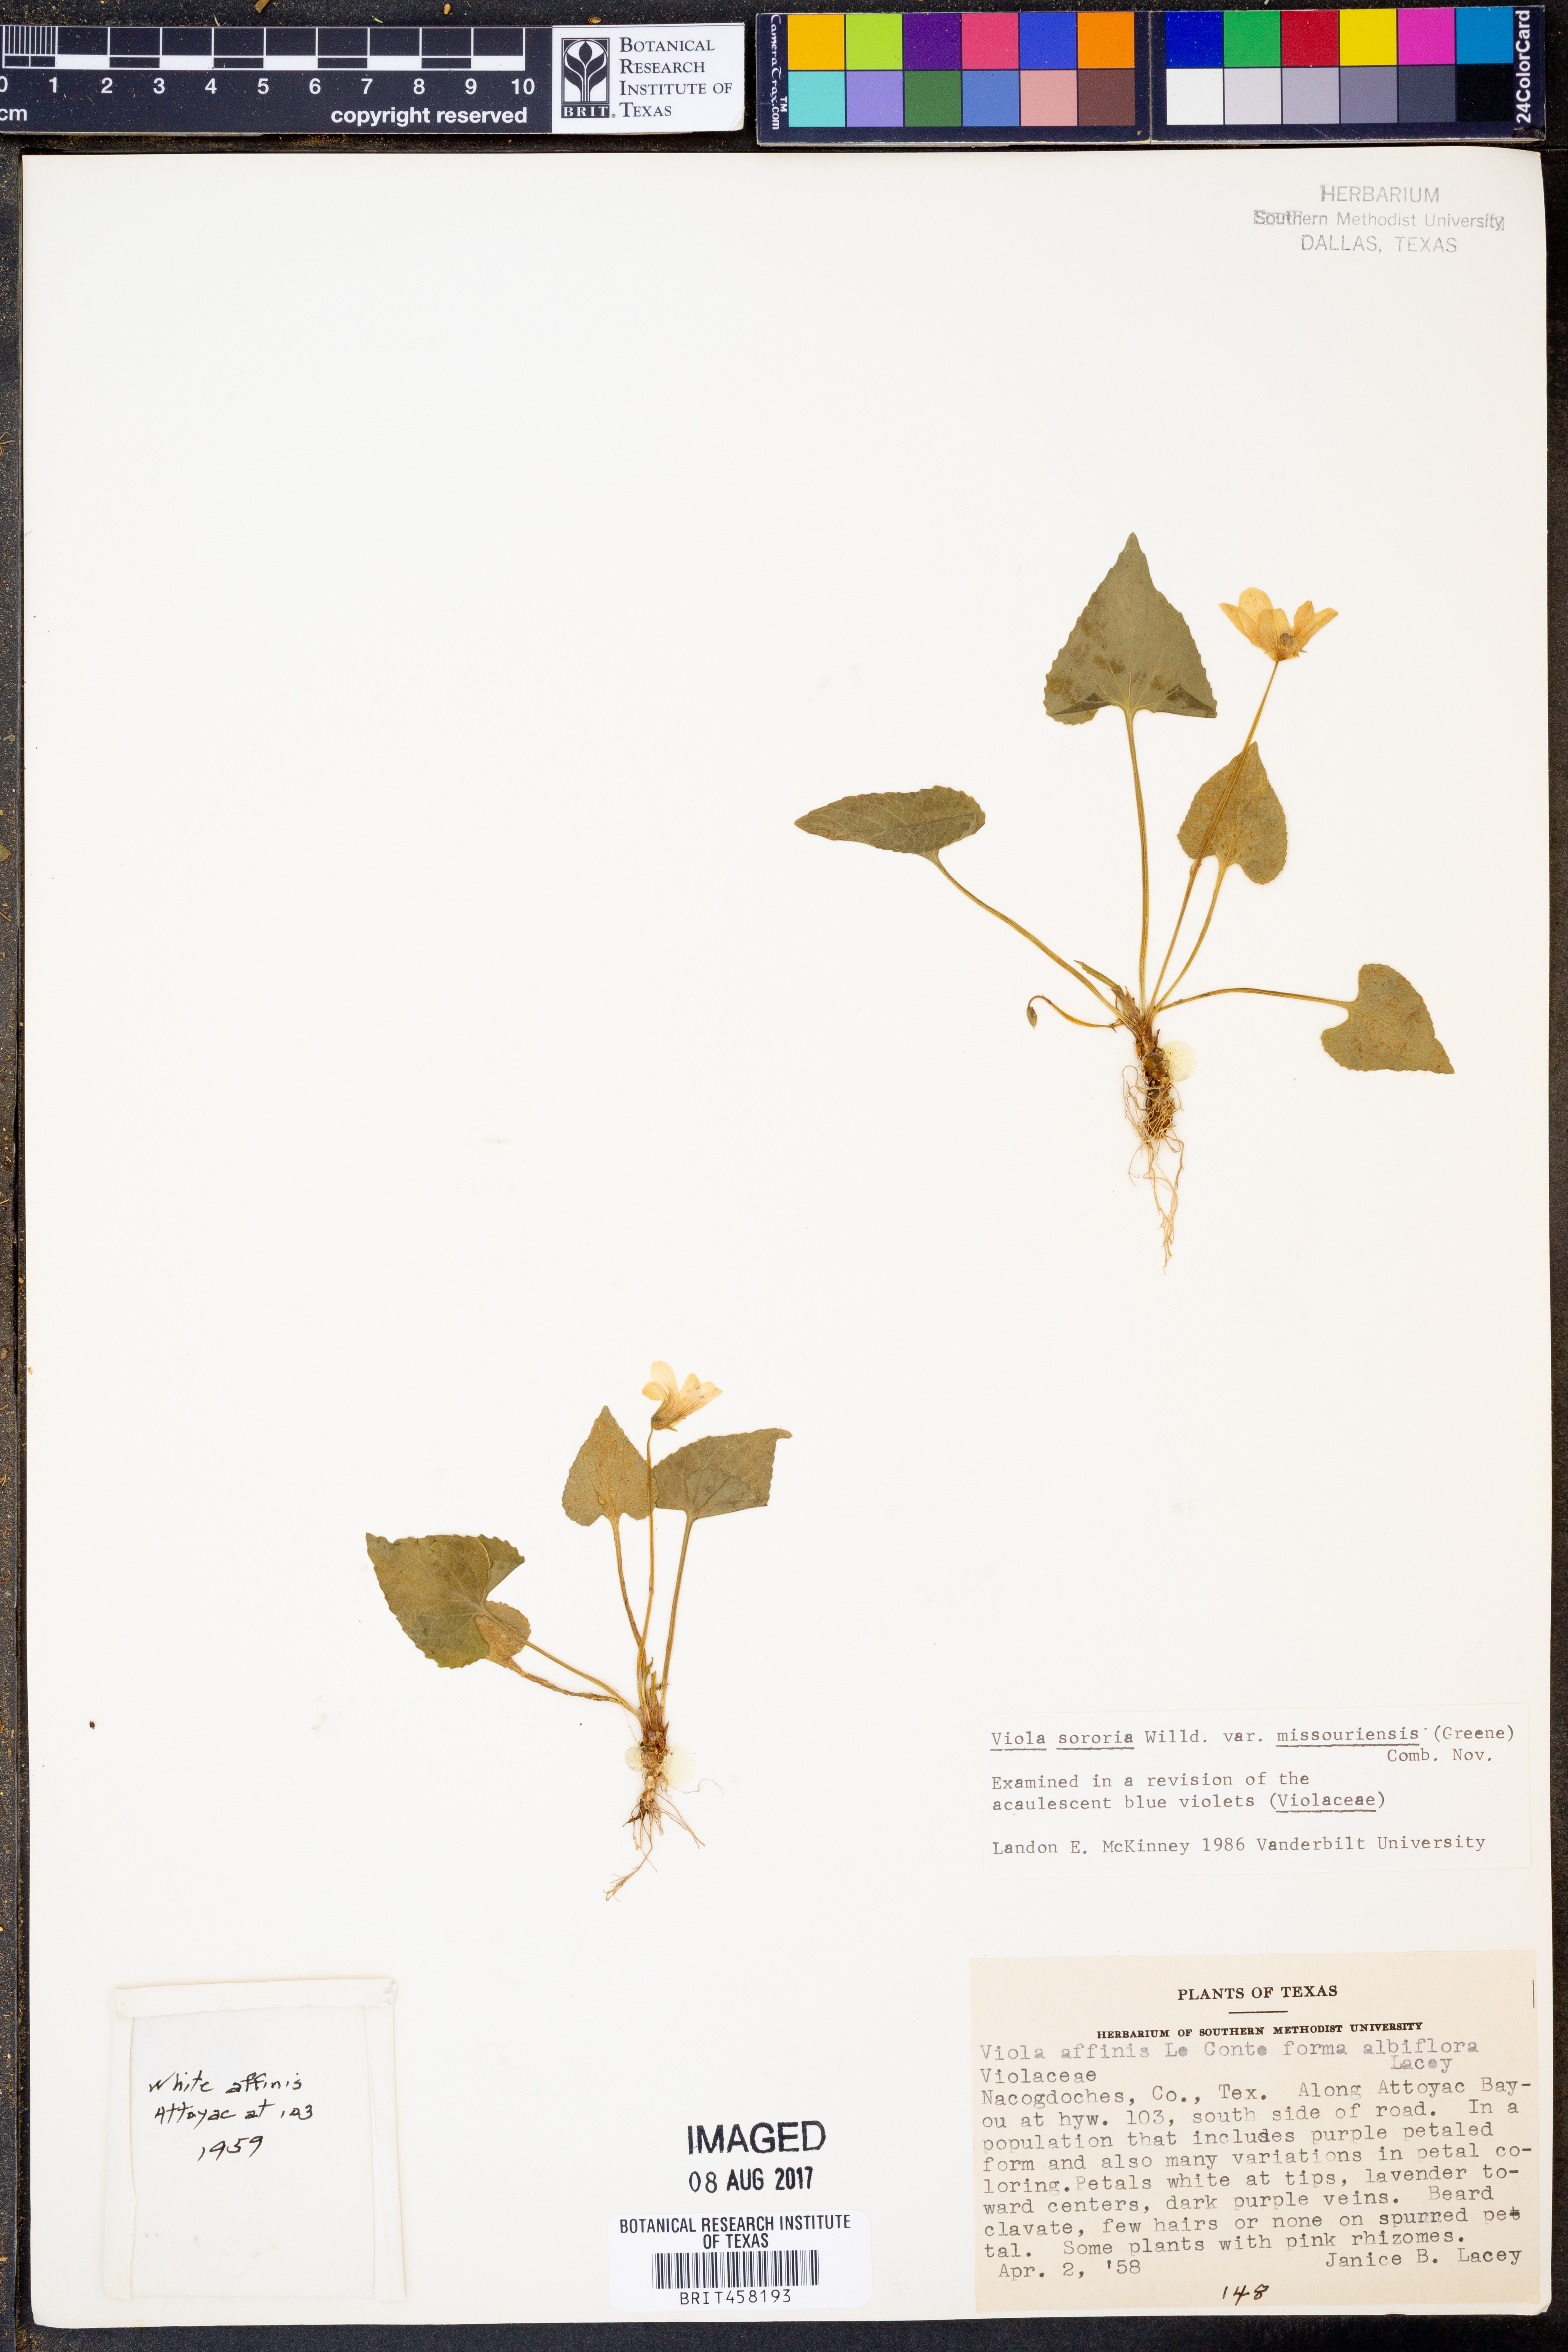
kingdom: Plantae
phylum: Tracheophyta
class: Magnoliopsida
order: Malpighiales
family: Violaceae
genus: Viola
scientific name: Viola sororia
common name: Dooryard violet
